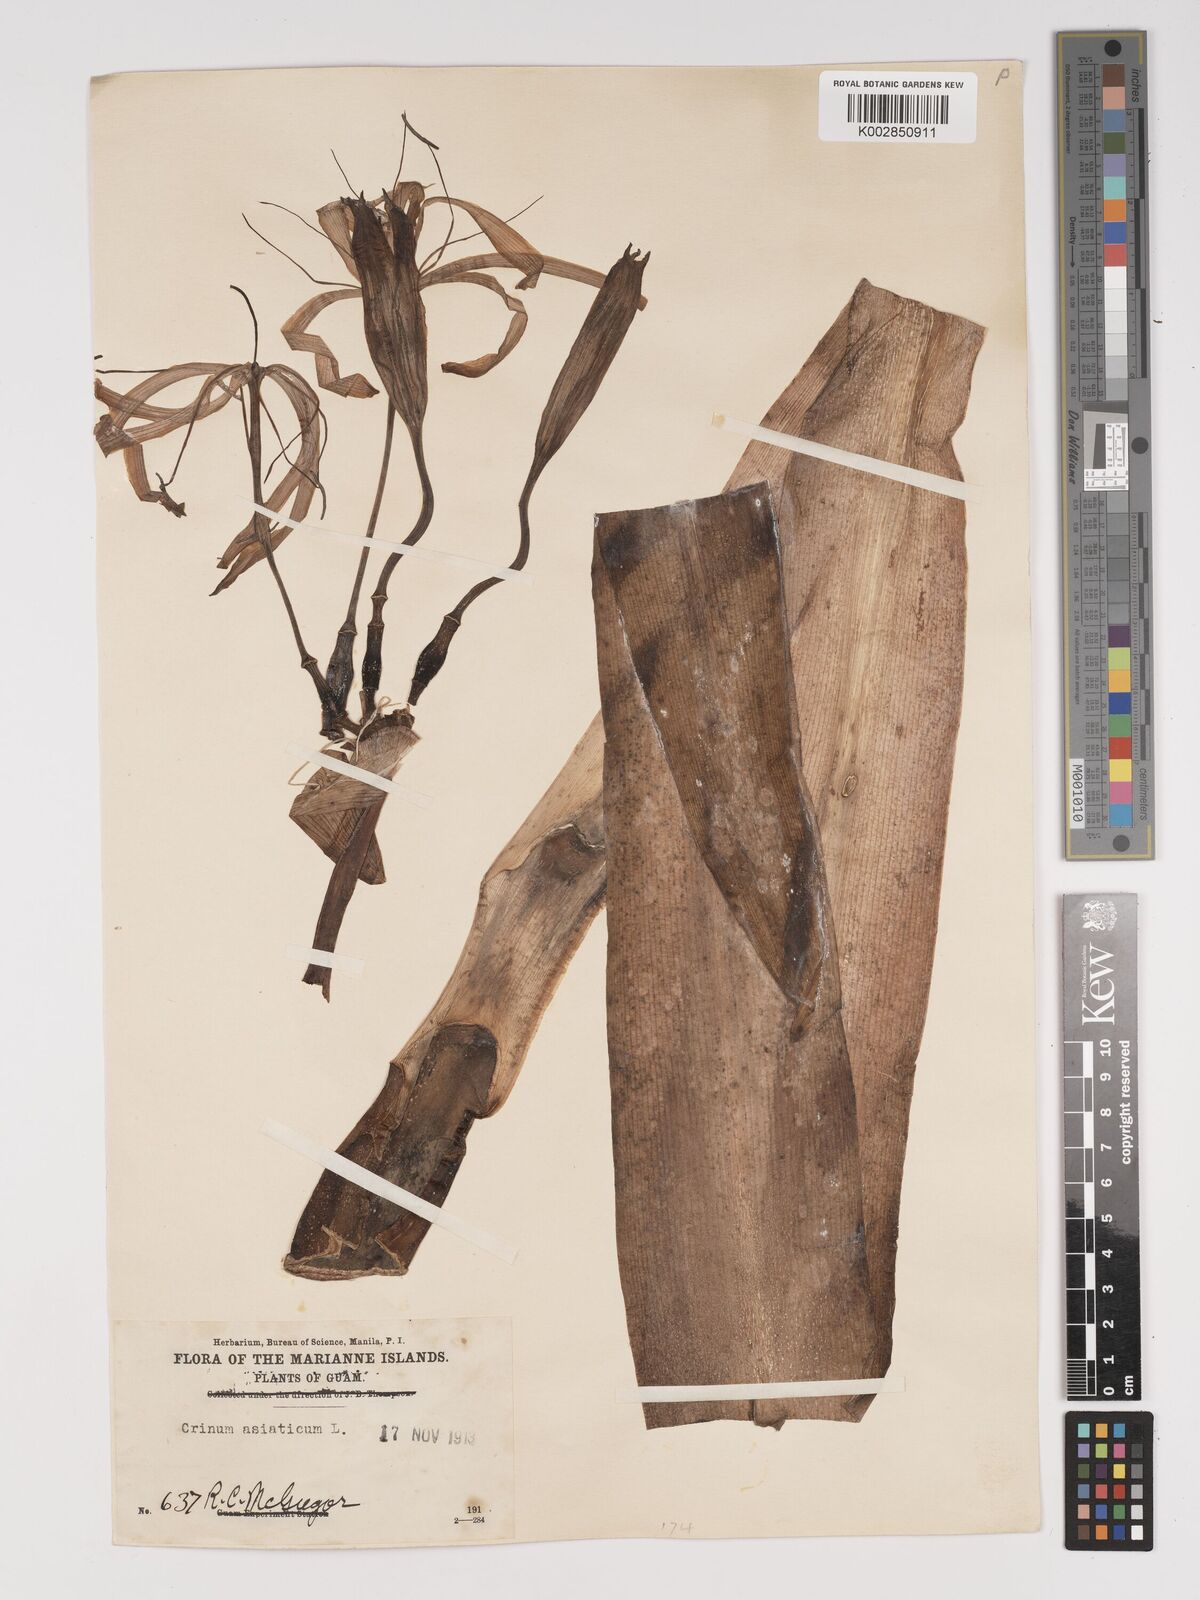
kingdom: Plantae
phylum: Tracheophyta
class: Liliopsida
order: Asparagales
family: Amaryllidaceae
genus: Crinum
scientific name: Crinum asiaticum
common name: Poisonbulb
